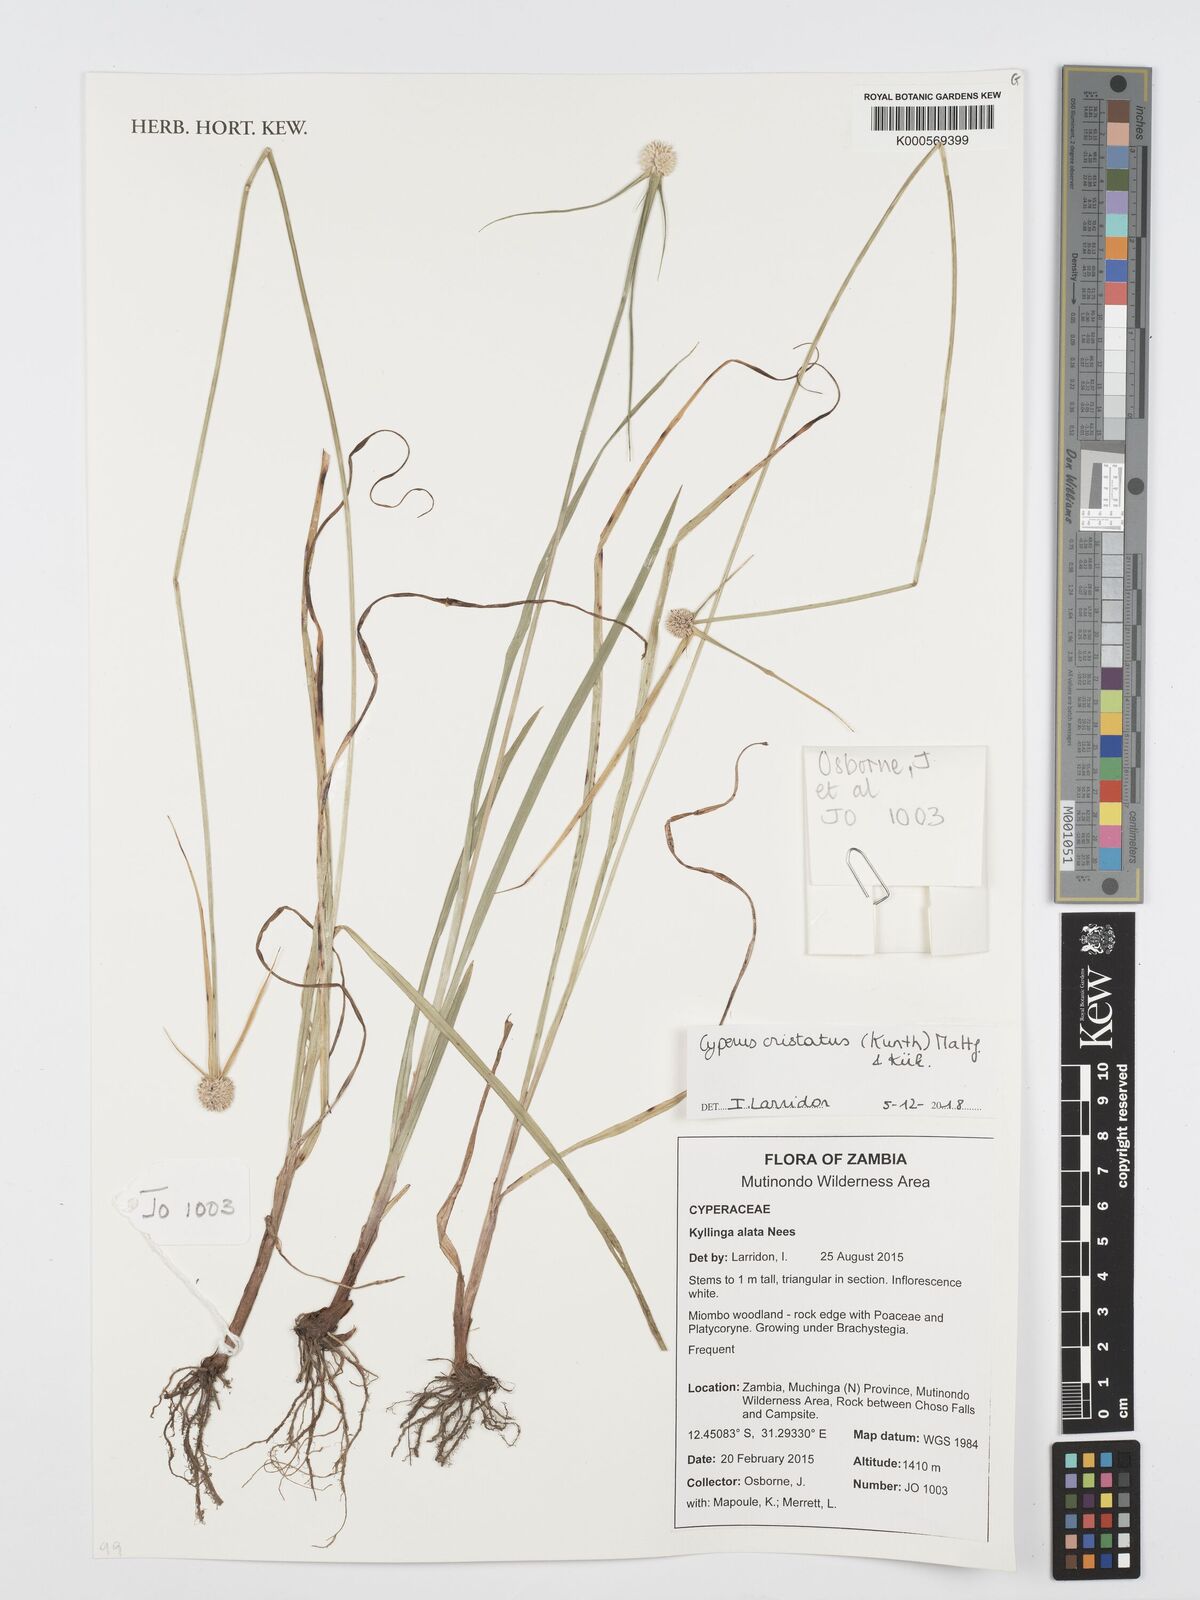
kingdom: Plantae
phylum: Tracheophyta
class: Liliopsida
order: Poales
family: Cyperaceae
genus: Cyperus
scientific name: Cyperus
